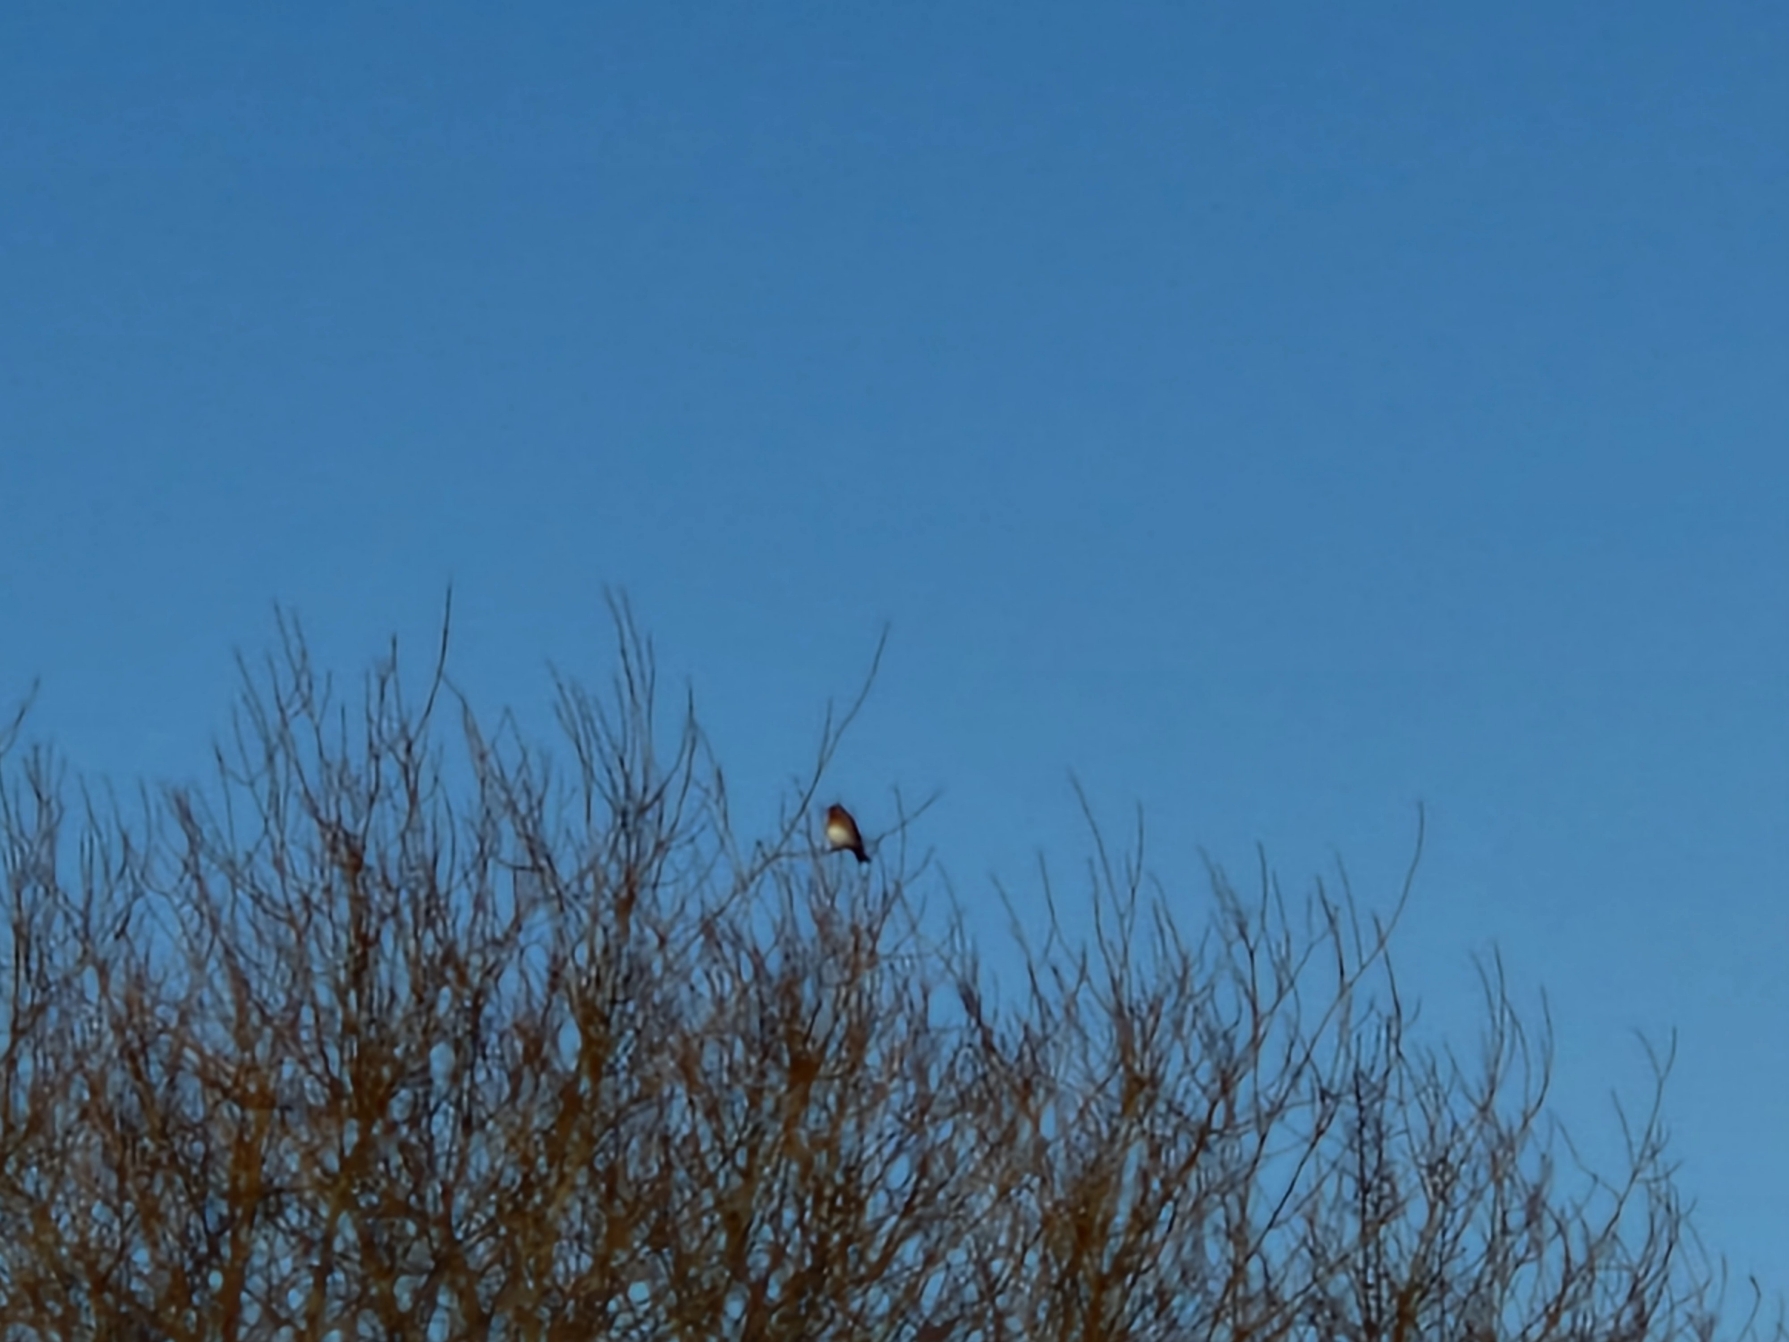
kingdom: Animalia
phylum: Chordata
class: Aves
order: Passeriformes
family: Turdidae
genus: Turdus
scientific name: Turdus pilaris
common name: Sjagger
